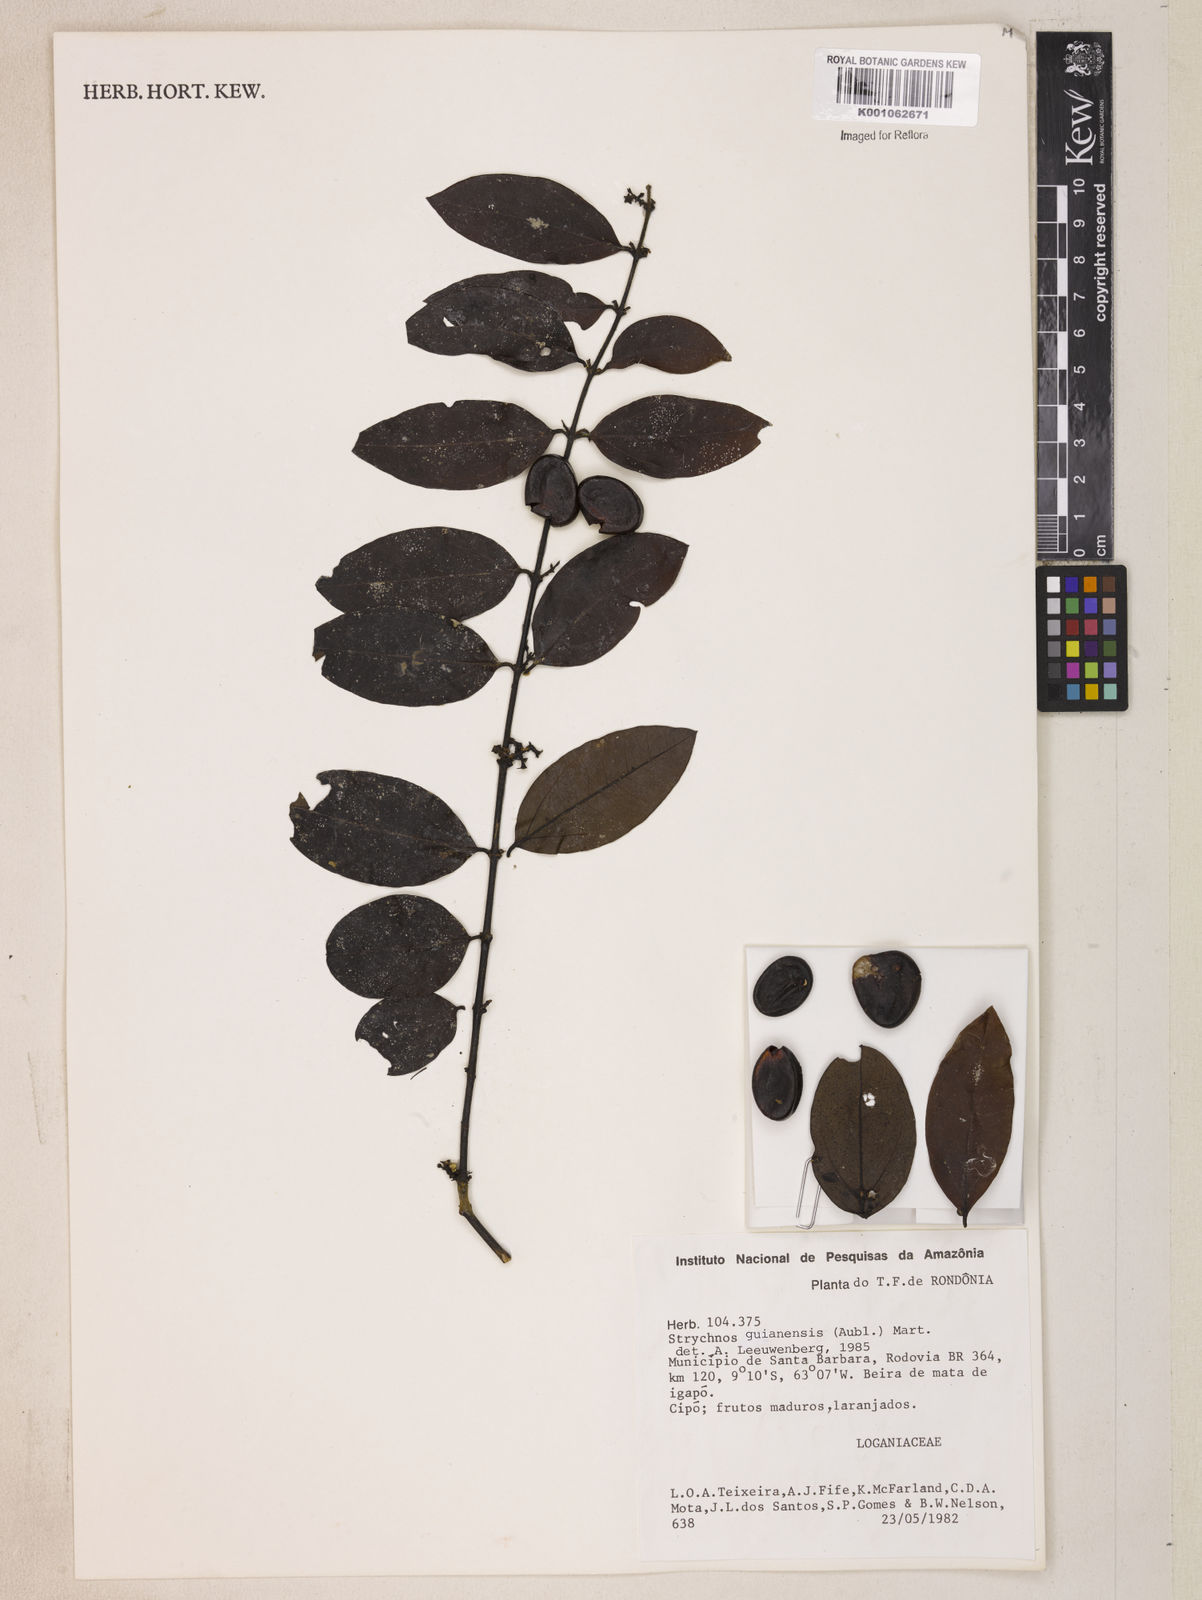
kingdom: Plantae
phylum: Tracheophyta
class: Magnoliopsida
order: Gentianales
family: Loganiaceae
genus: Strychnos
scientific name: Strychnos guianensis
